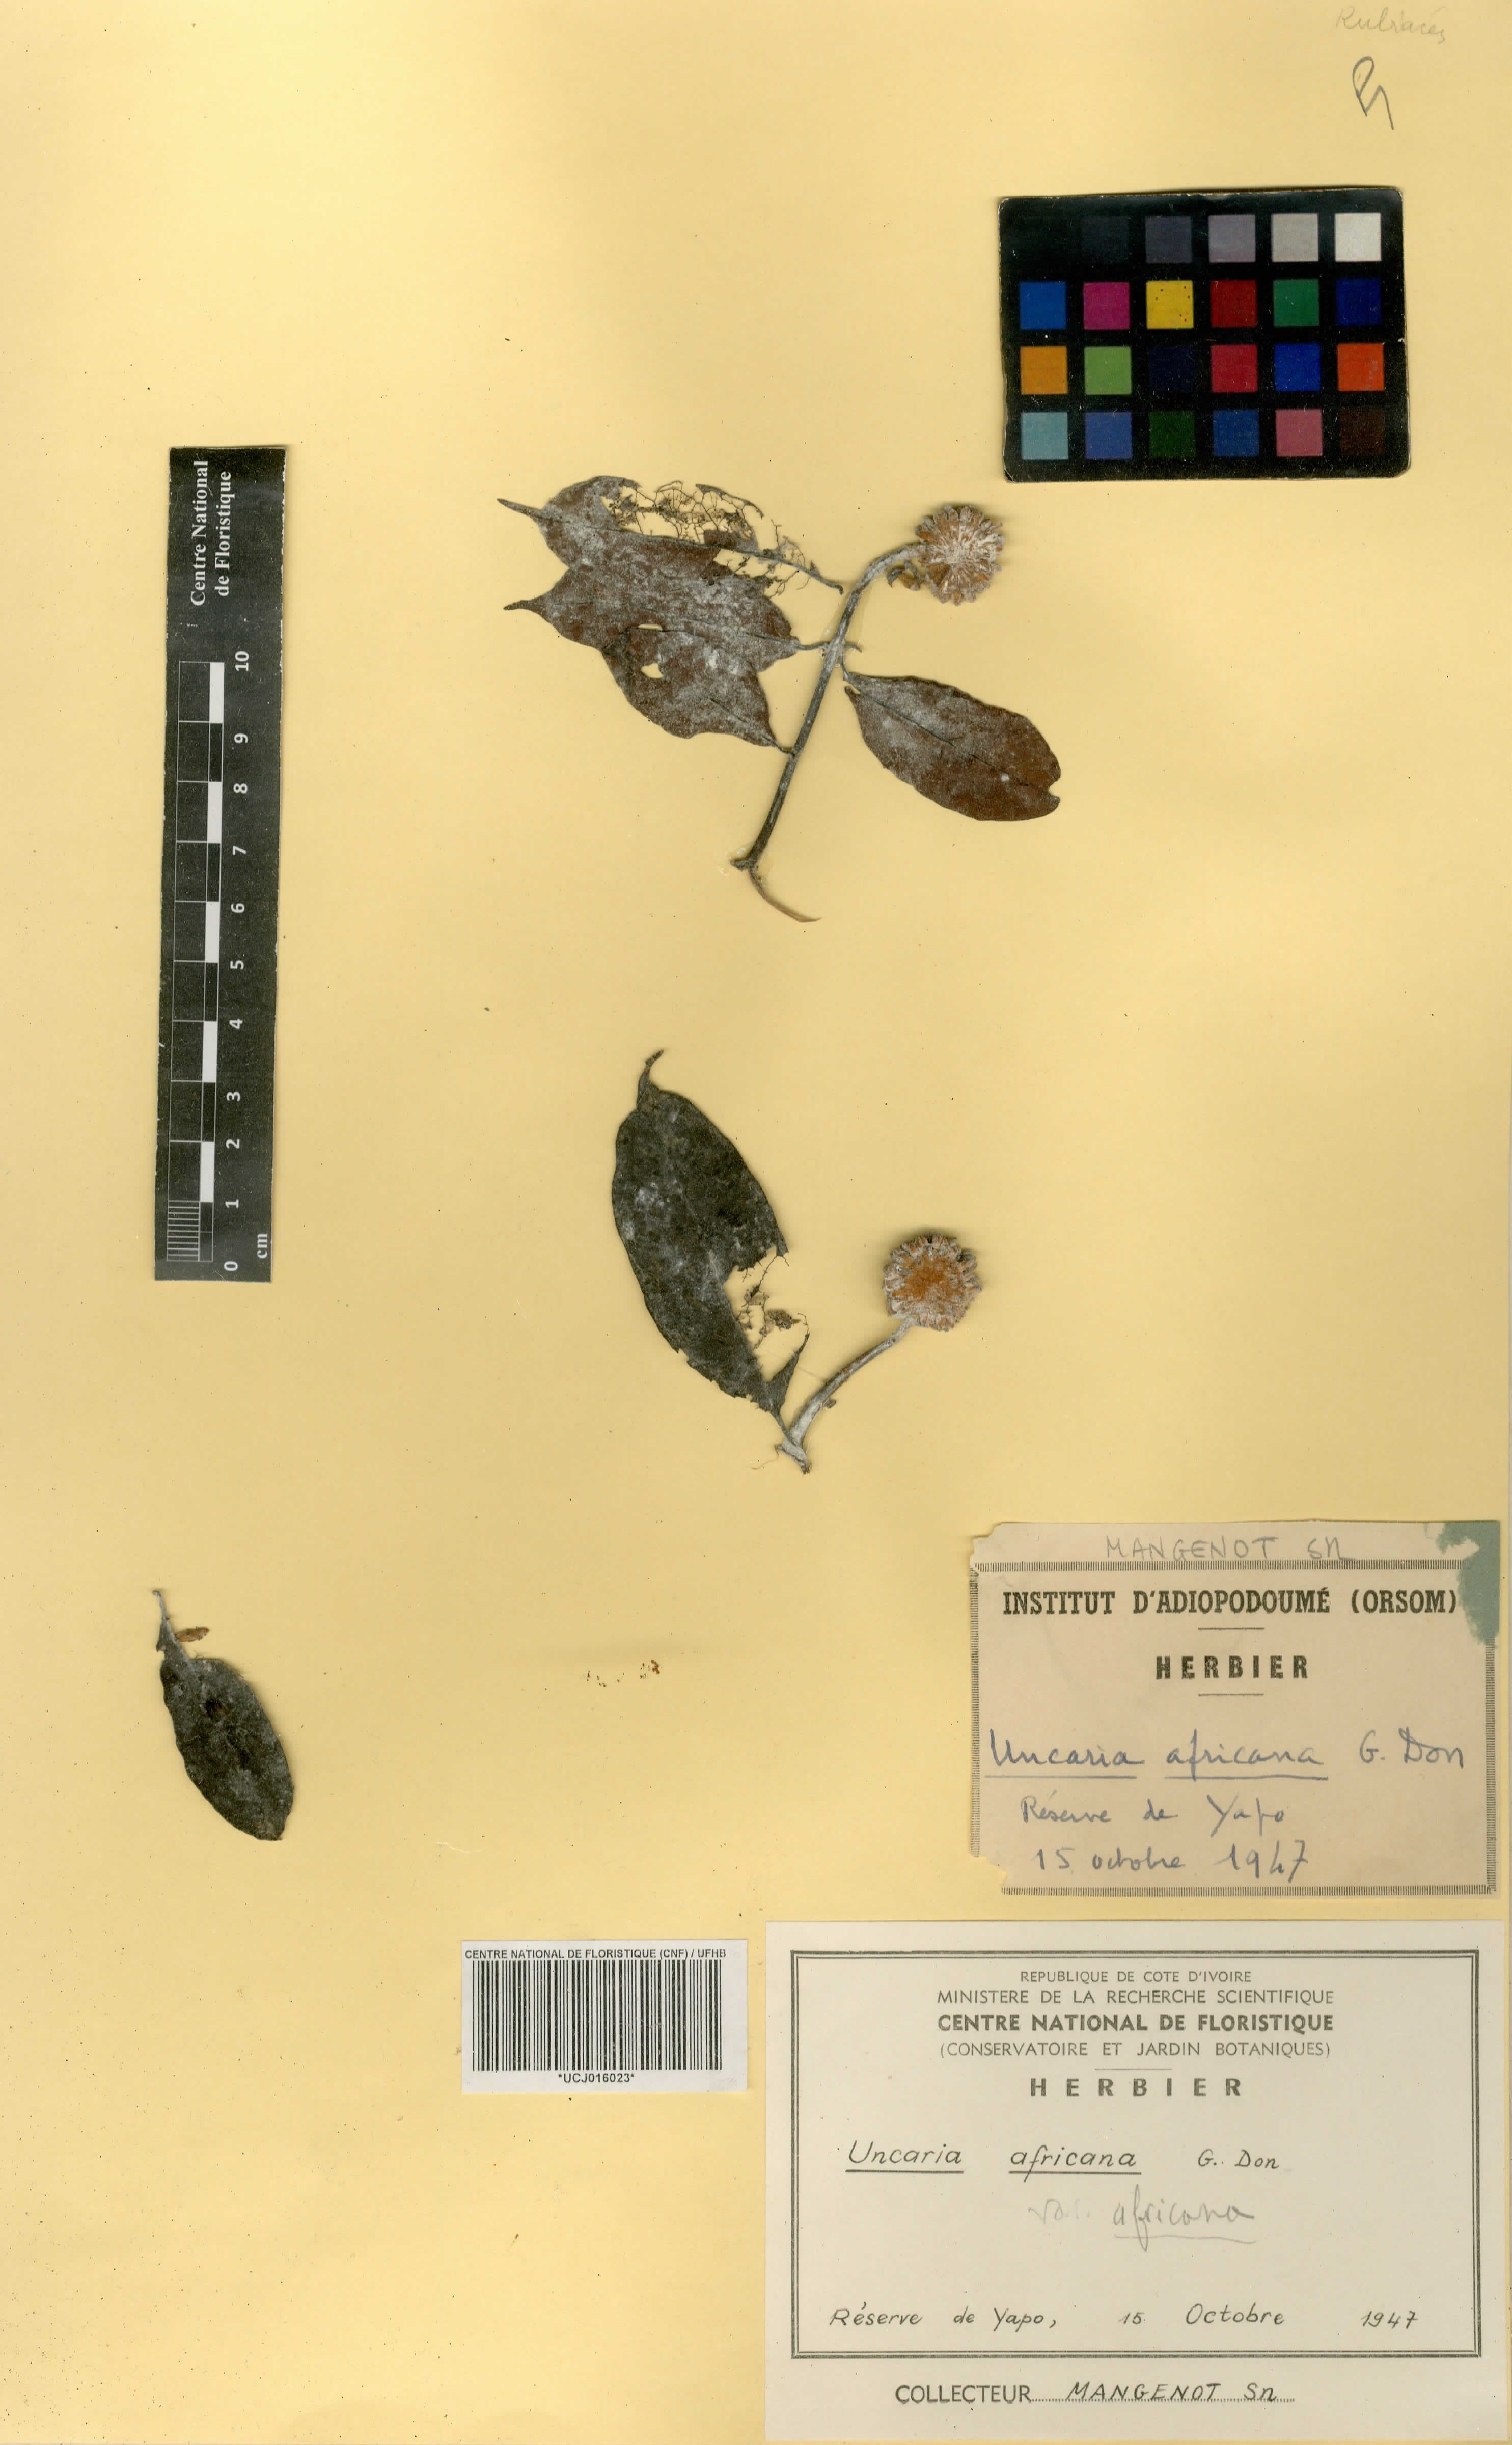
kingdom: Plantae
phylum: Tracheophyta
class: Magnoliopsida
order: Gentianales
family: Rubiaceae
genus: Uncaria
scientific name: Uncaria africana
